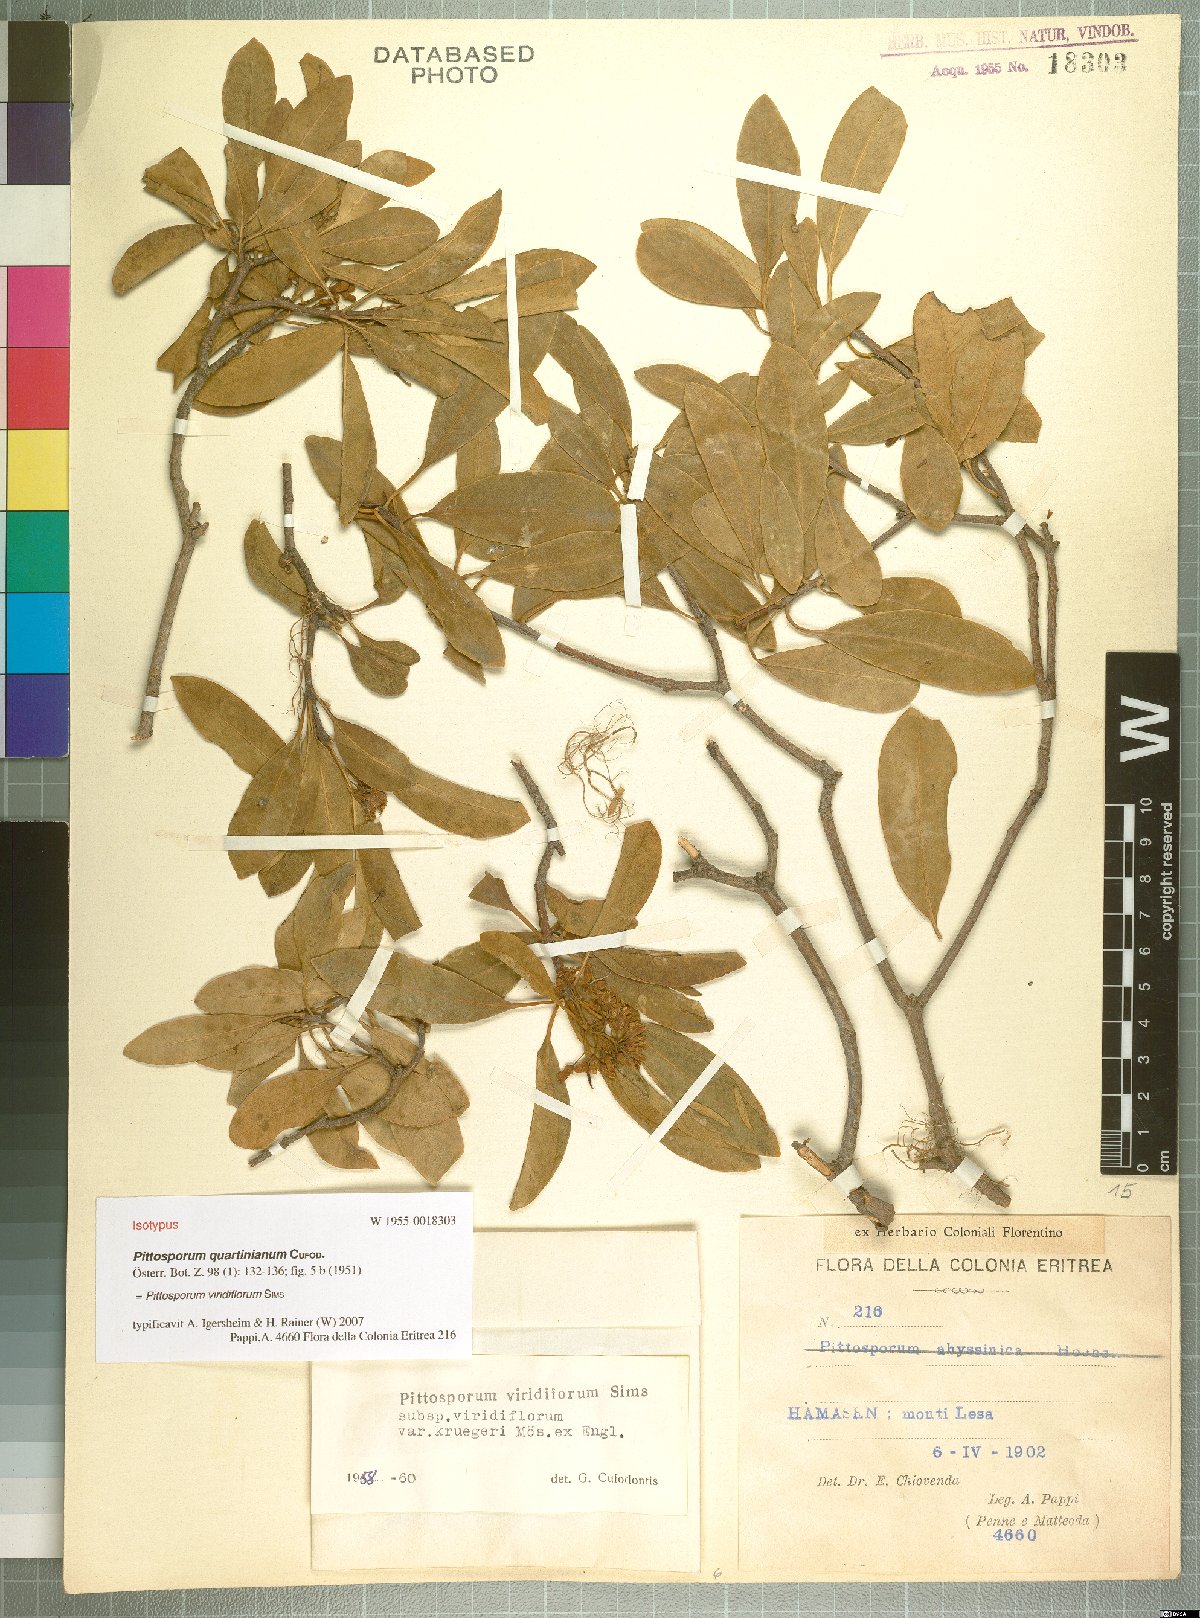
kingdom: Plantae
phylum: Tracheophyta
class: Magnoliopsida
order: Apiales
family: Pittosporaceae
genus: Pittosporum
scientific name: Pittosporum viridiflorum
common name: Cape cheesewood
